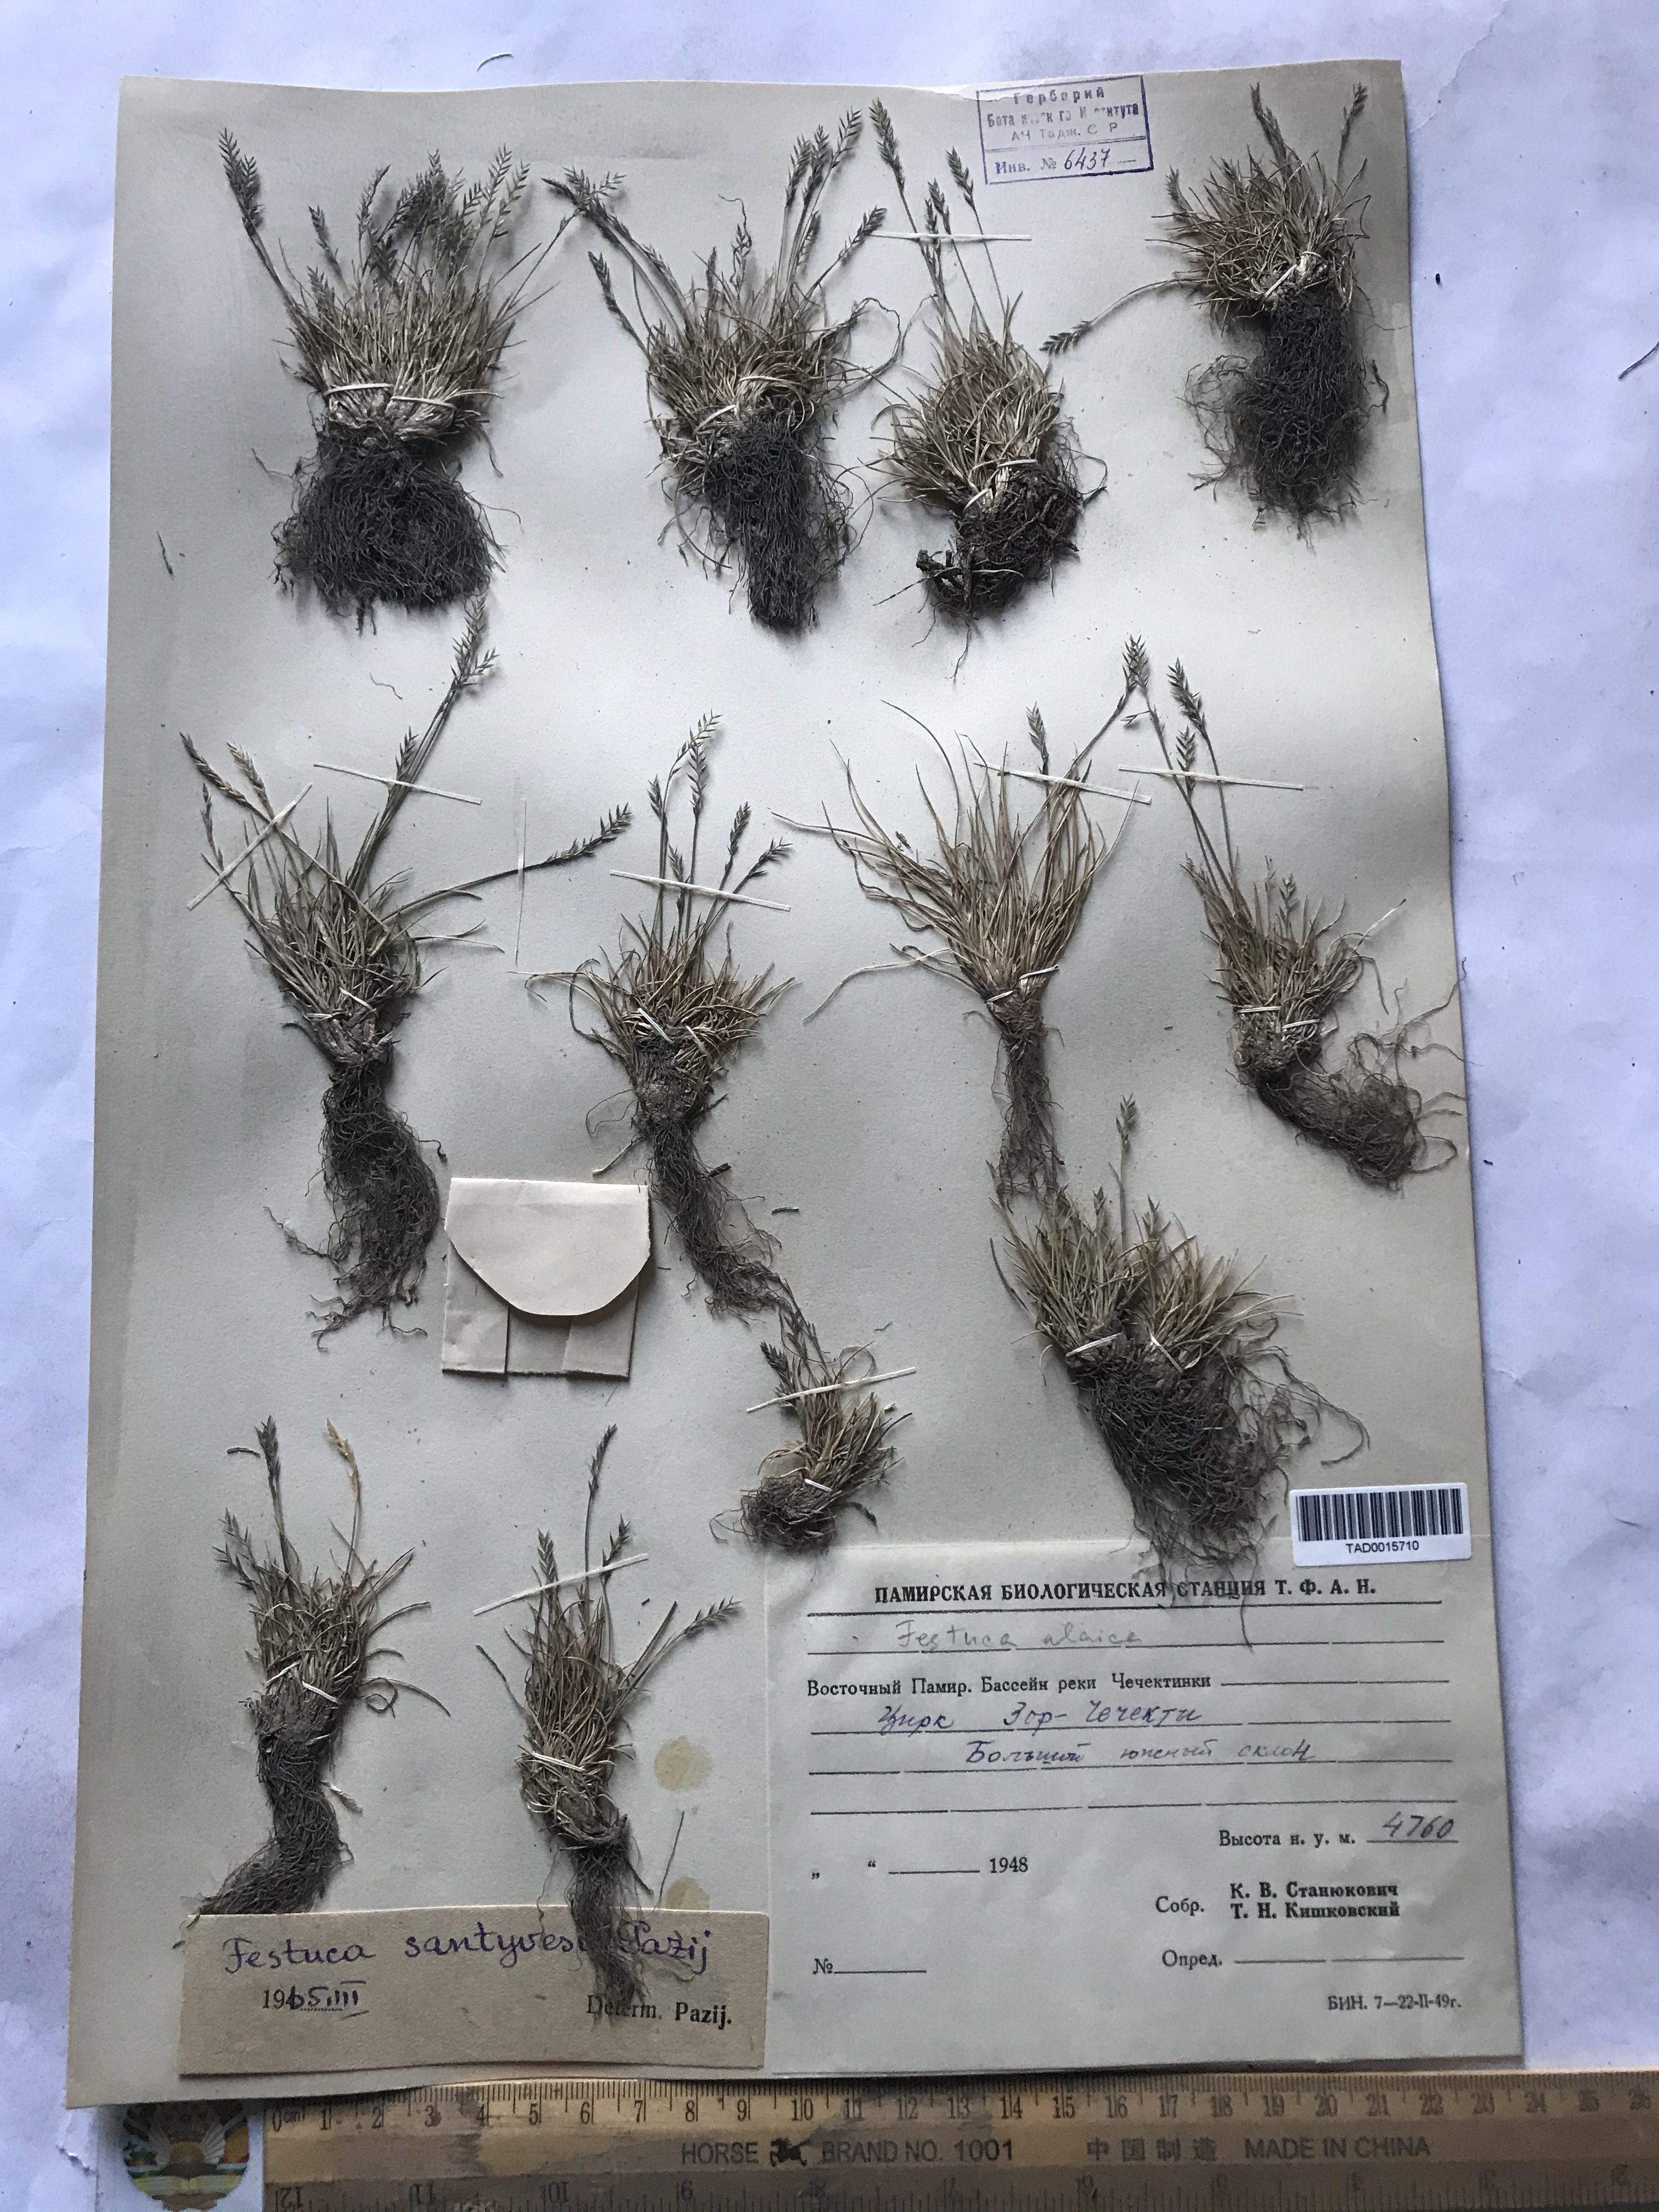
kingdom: Plantae
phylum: Tracheophyta
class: Liliopsida
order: Poales
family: Poaceae
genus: Festuca
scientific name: Festuca coelestis
